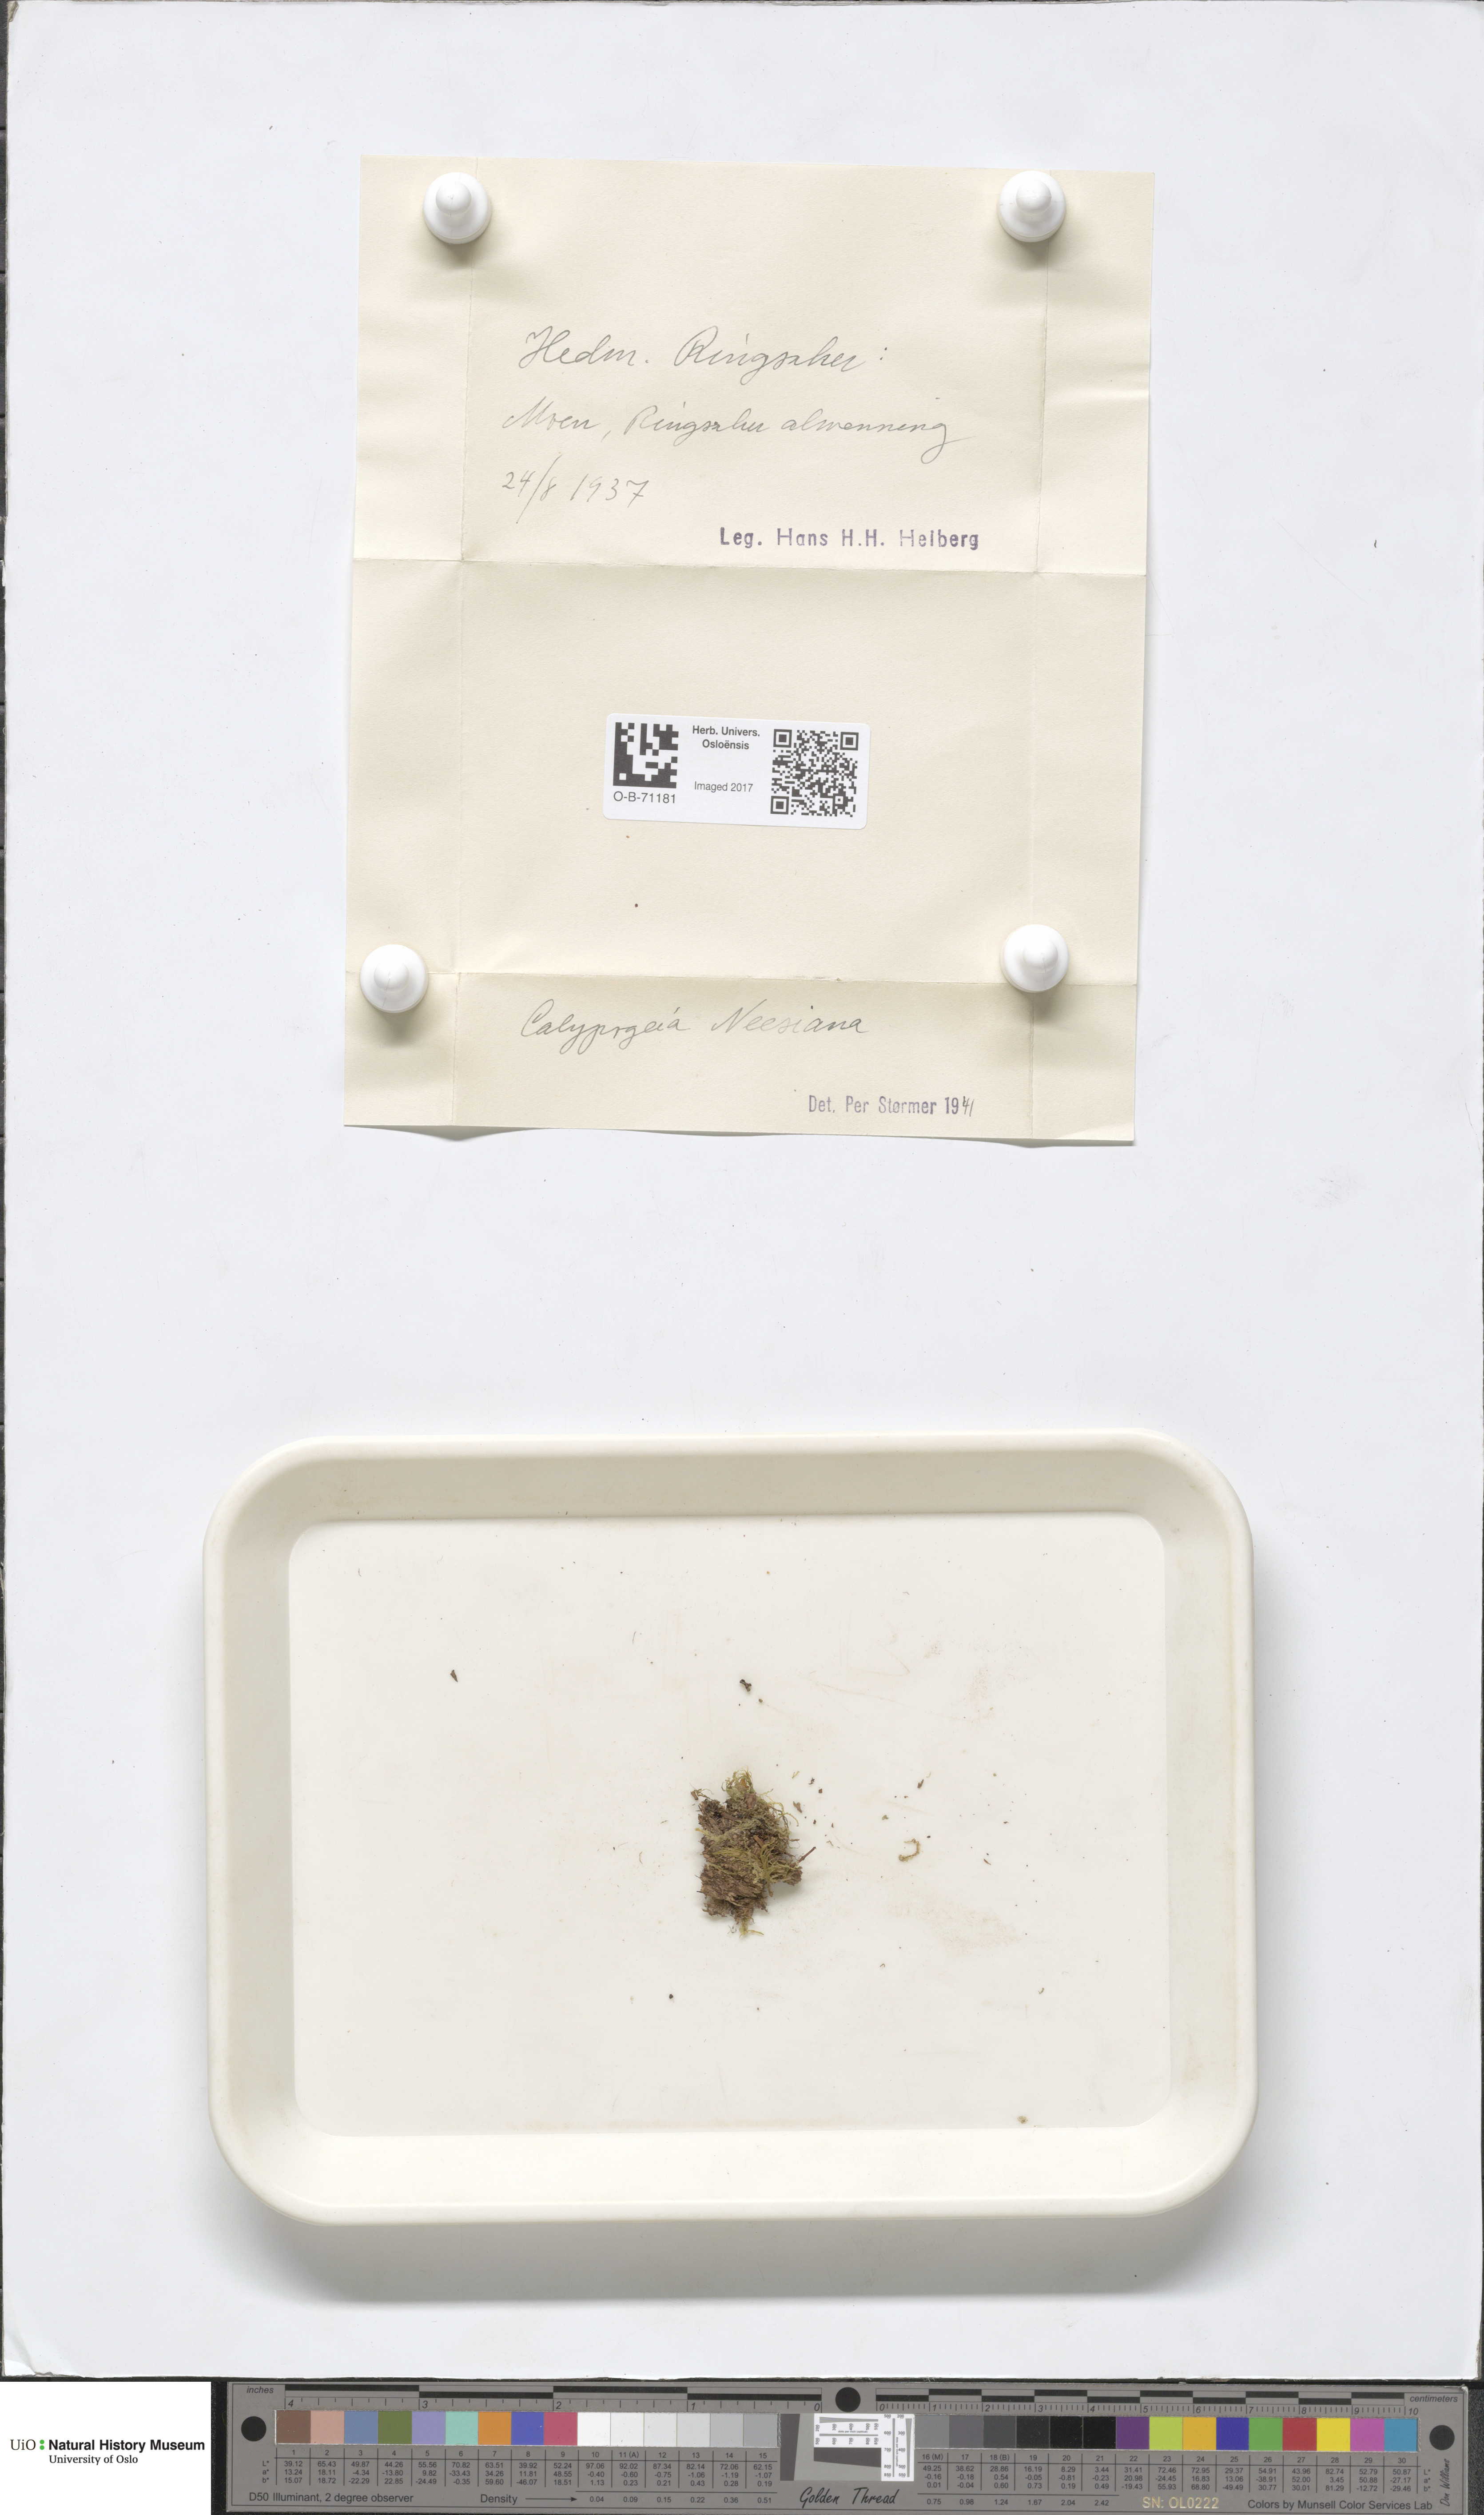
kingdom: Plantae
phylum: Marchantiophyta
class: Jungermanniopsida
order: Jungermanniales
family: Calypogeiaceae
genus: Calypogeia
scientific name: Calypogeia neesiana
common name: Nees  pouchwort
